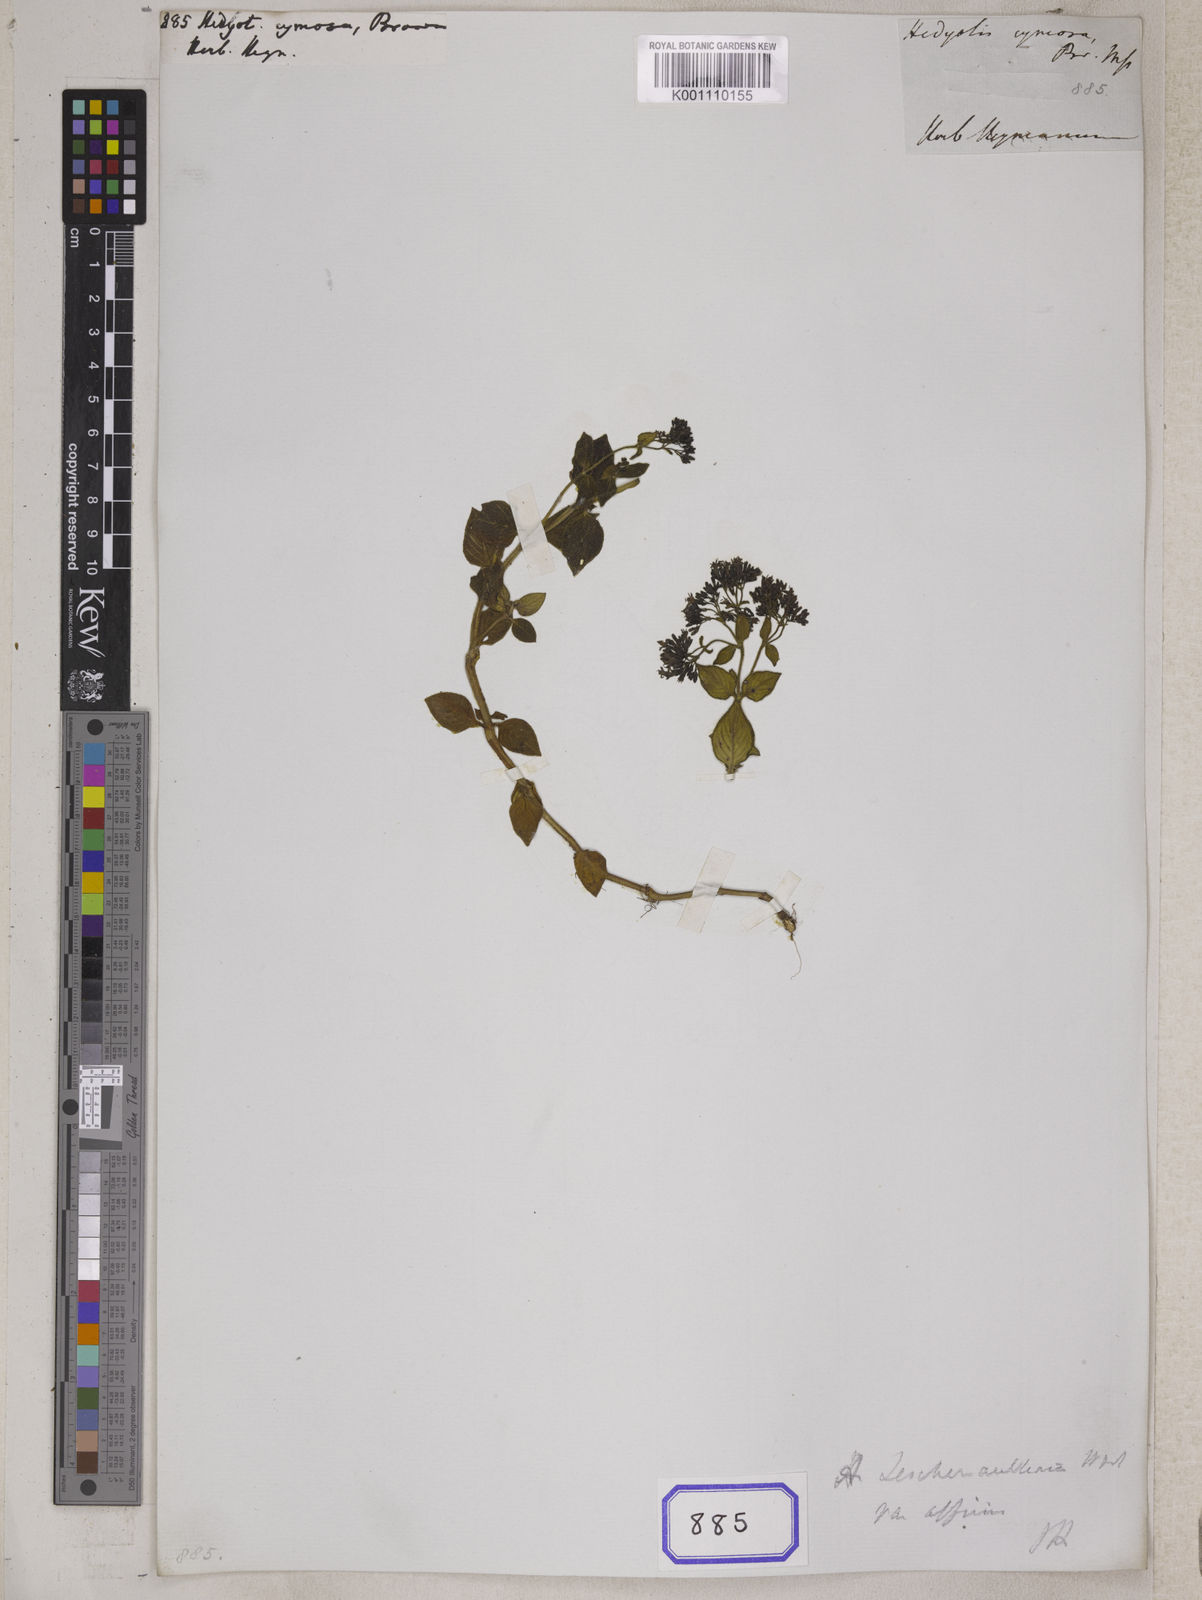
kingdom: Plantae
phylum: Tracheophyta
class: Magnoliopsida
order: Gentianales
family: Rubiaceae
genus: Hedyotis
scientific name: Hedyotis
